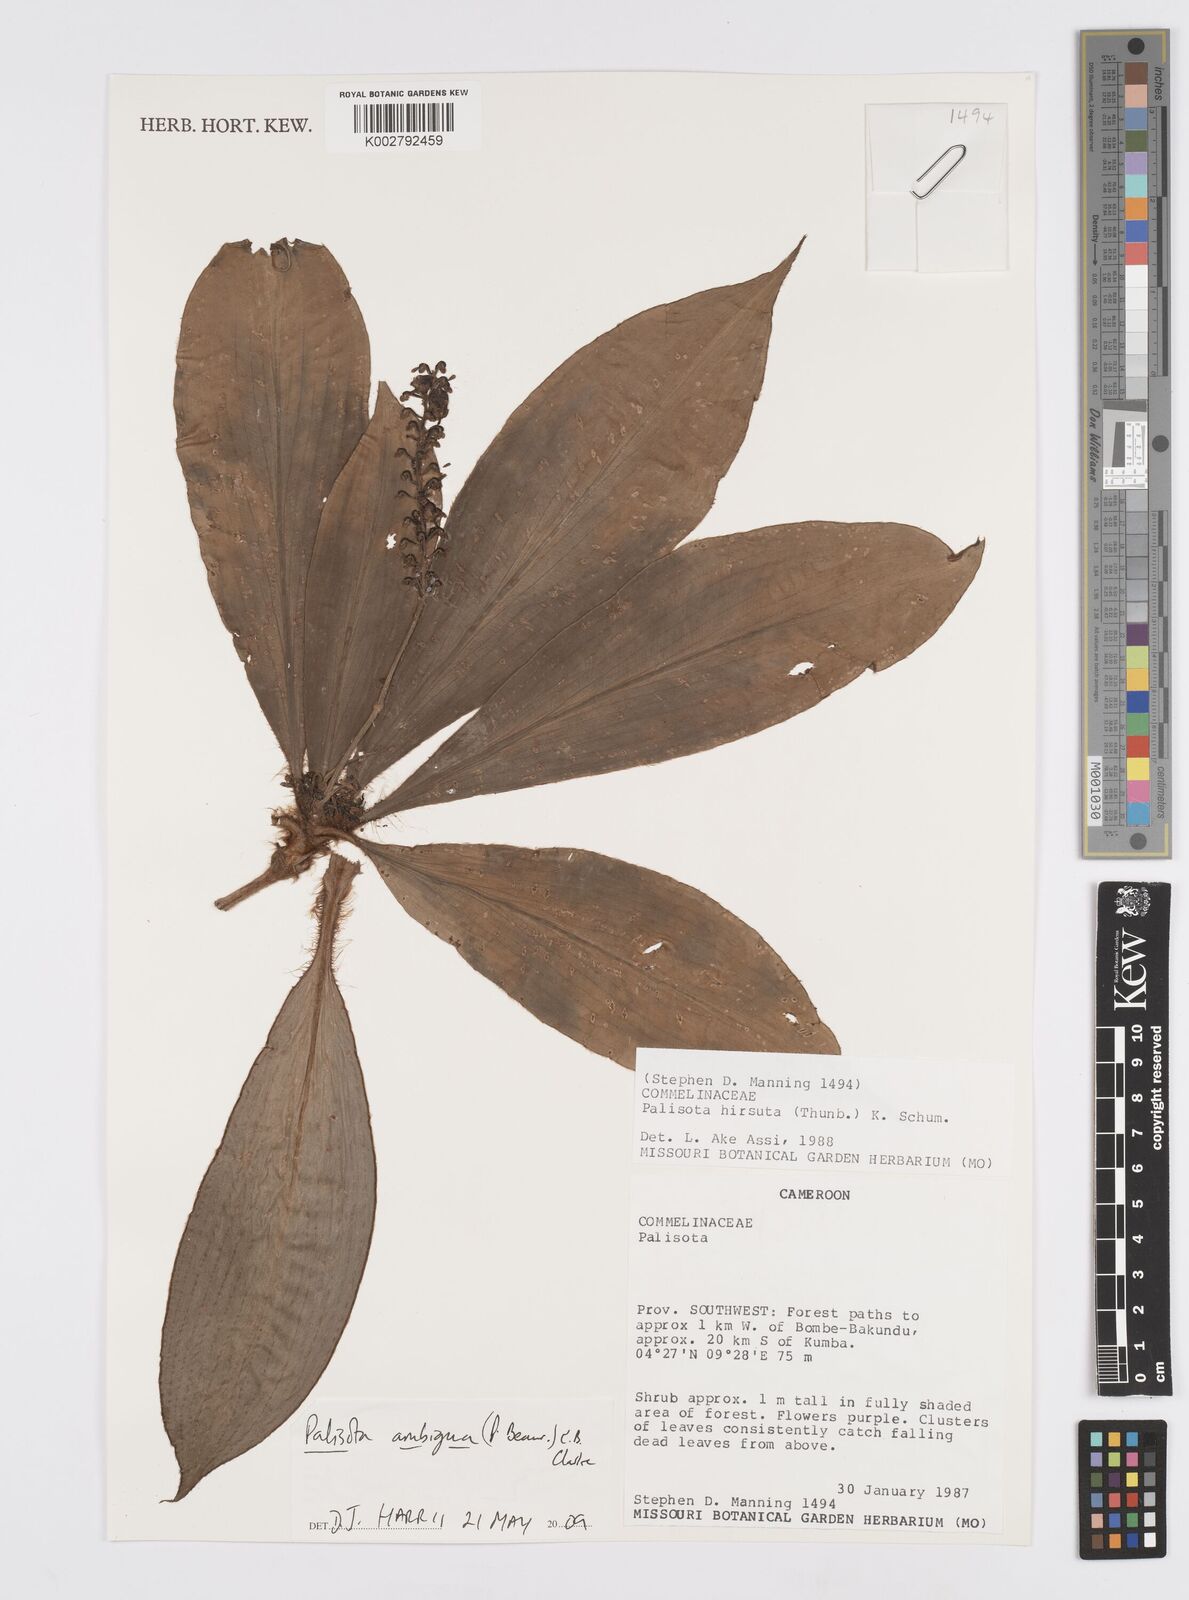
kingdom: Plantae
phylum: Tracheophyta
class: Liliopsida
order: Commelinales
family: Commelinaceae
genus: Palisota
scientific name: Palisota ambigua
